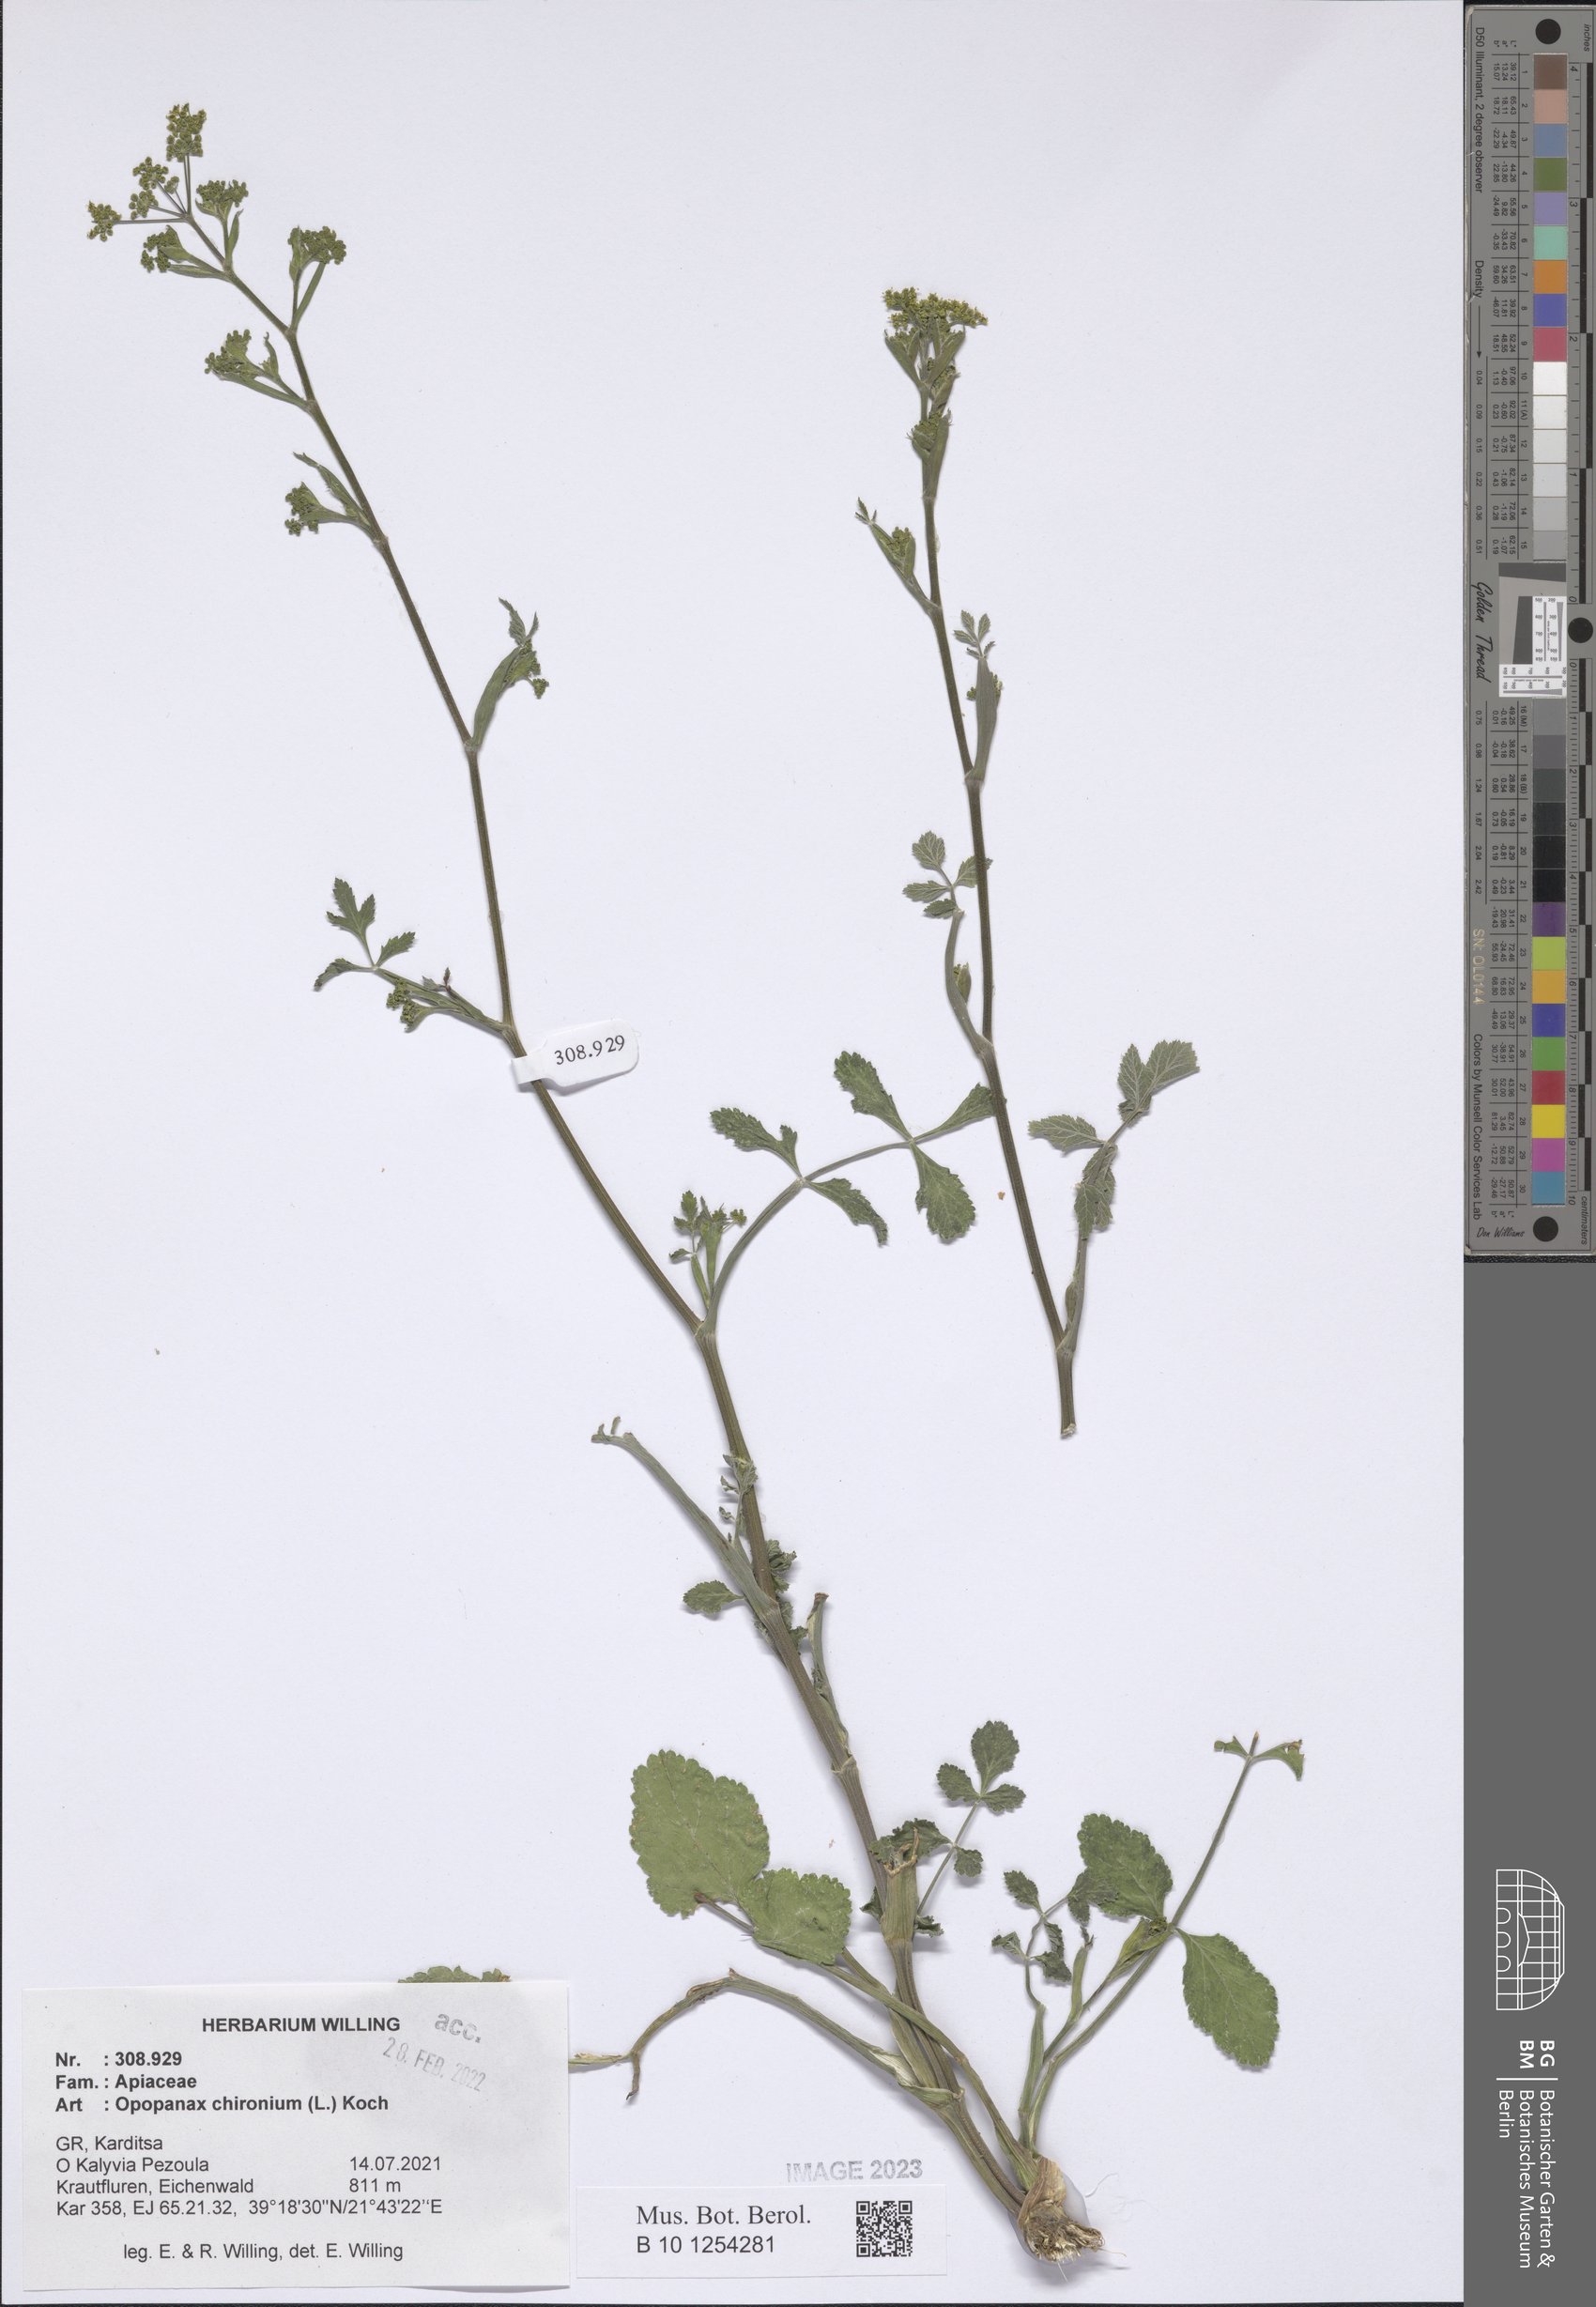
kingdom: Plantae
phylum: Tracheophyta
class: Magnoliopsida
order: Apiales
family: Apiaceae
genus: Opopanax
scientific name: Opopanax chironium
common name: Hercules-all-heal
